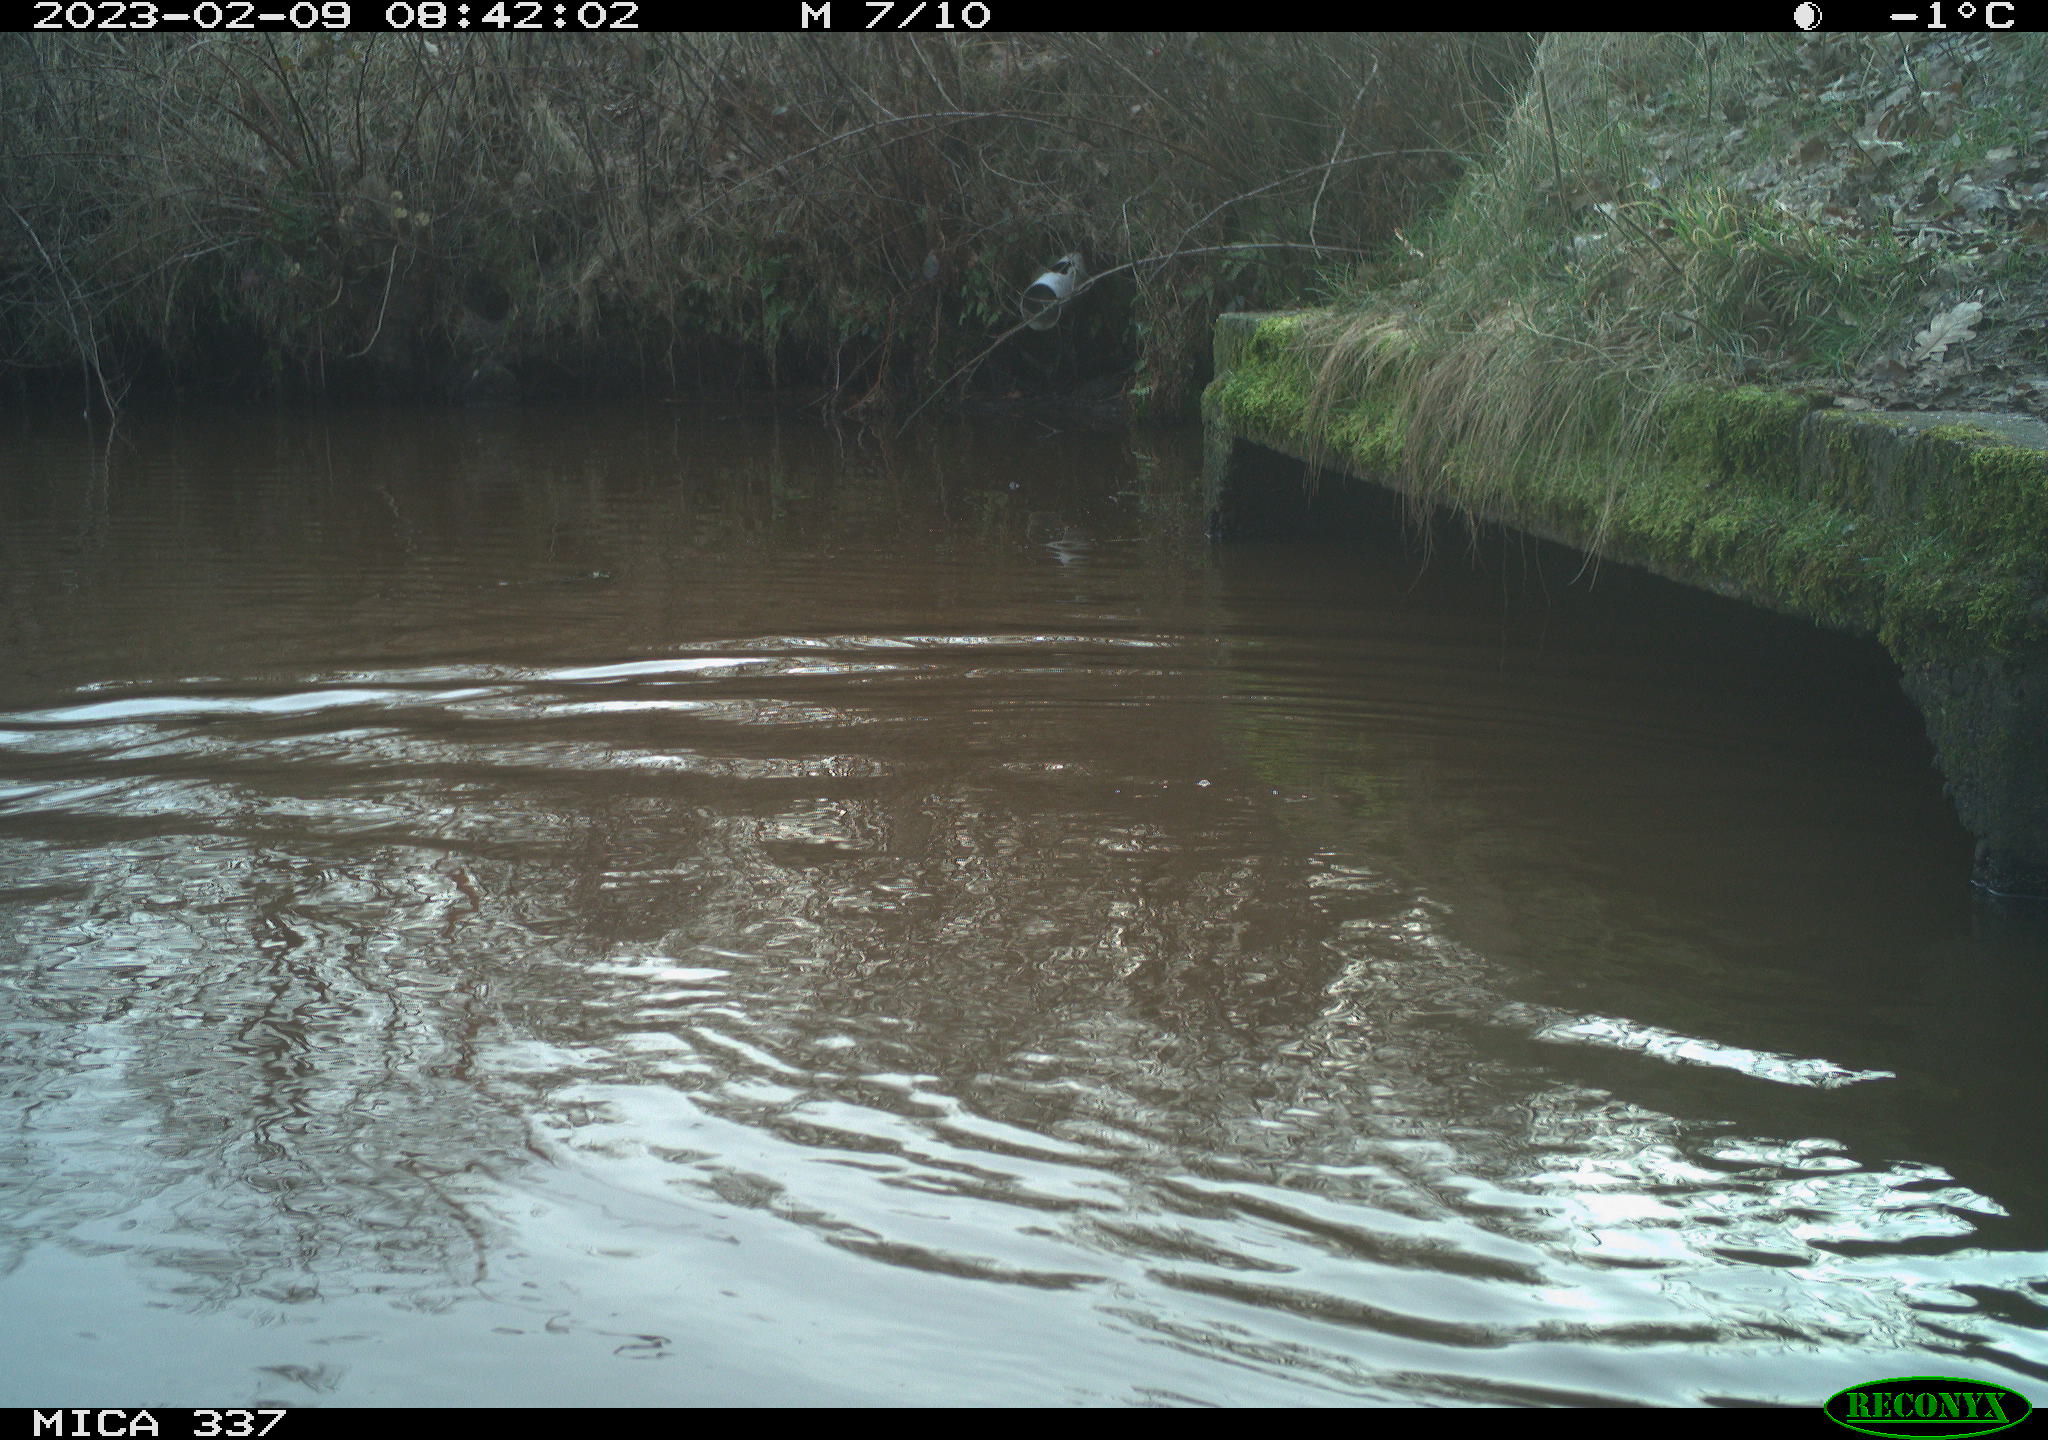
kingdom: Animalia
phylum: Chordata
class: Aves
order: Anseriformes
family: Anatidae
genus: Anas
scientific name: Anas
